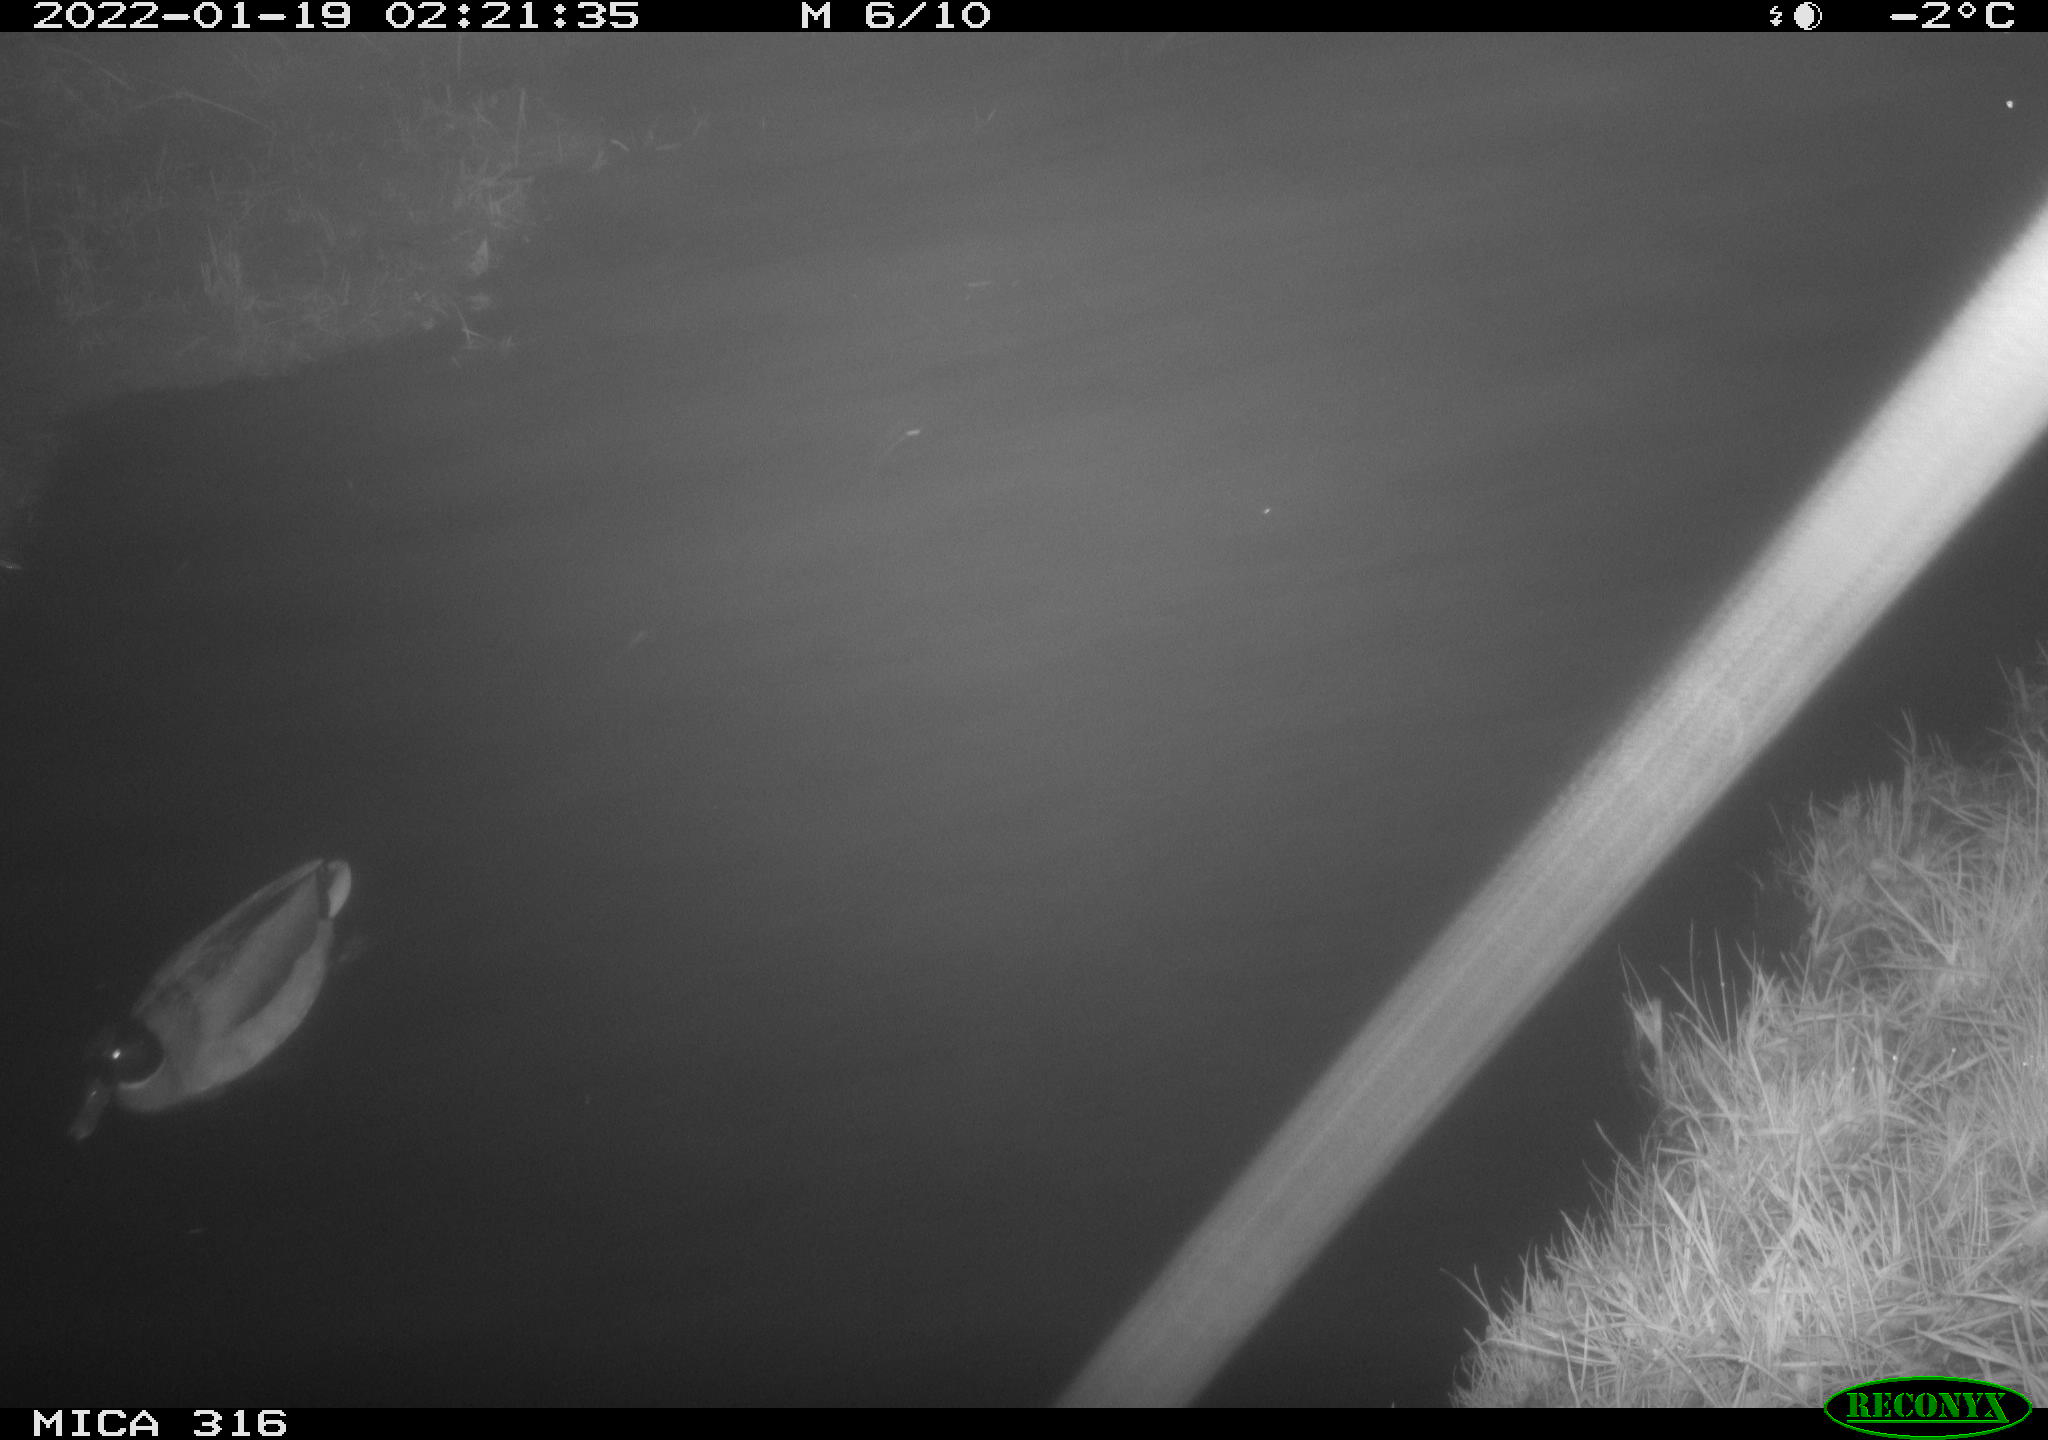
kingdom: Animalia
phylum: Chordata
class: Aves
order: Anseriformes
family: Anatidae
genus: Anas
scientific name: Anas
